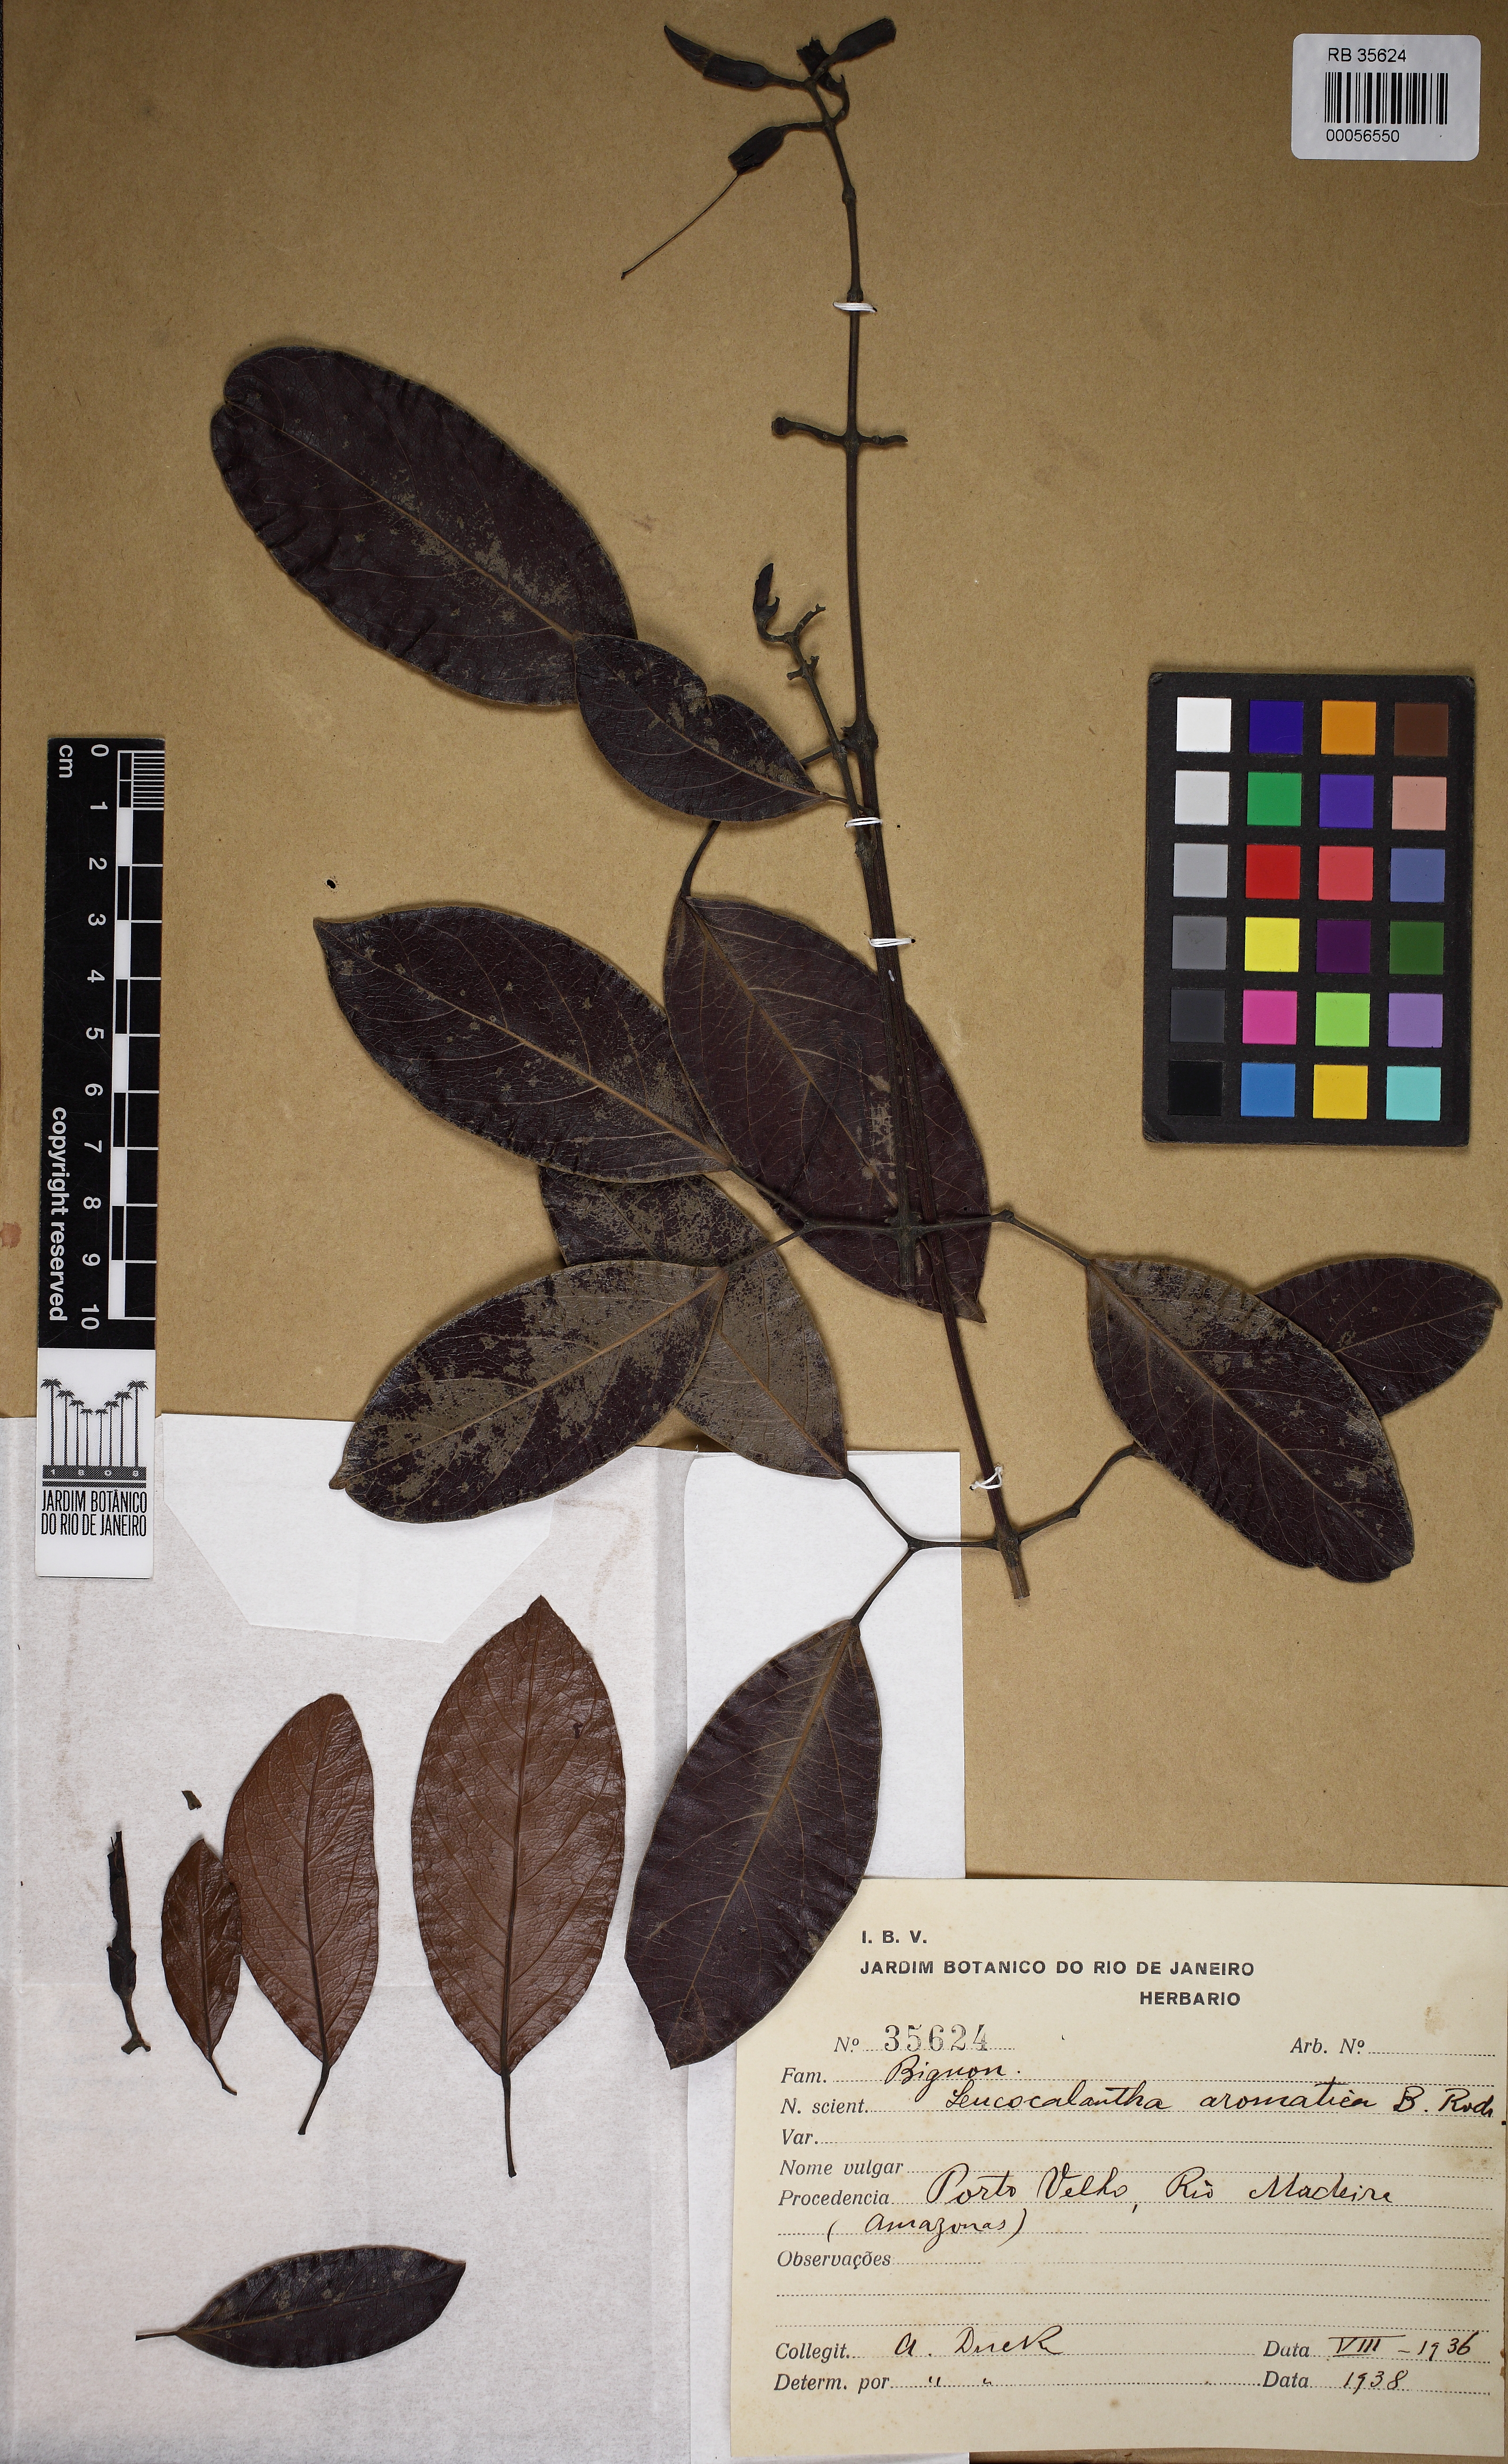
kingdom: Plantae
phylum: Tracheophyta
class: Magnoliopsida
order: Lamiales
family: Bignoniaceae
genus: Pachyptera
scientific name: Pachyptera aromatica
